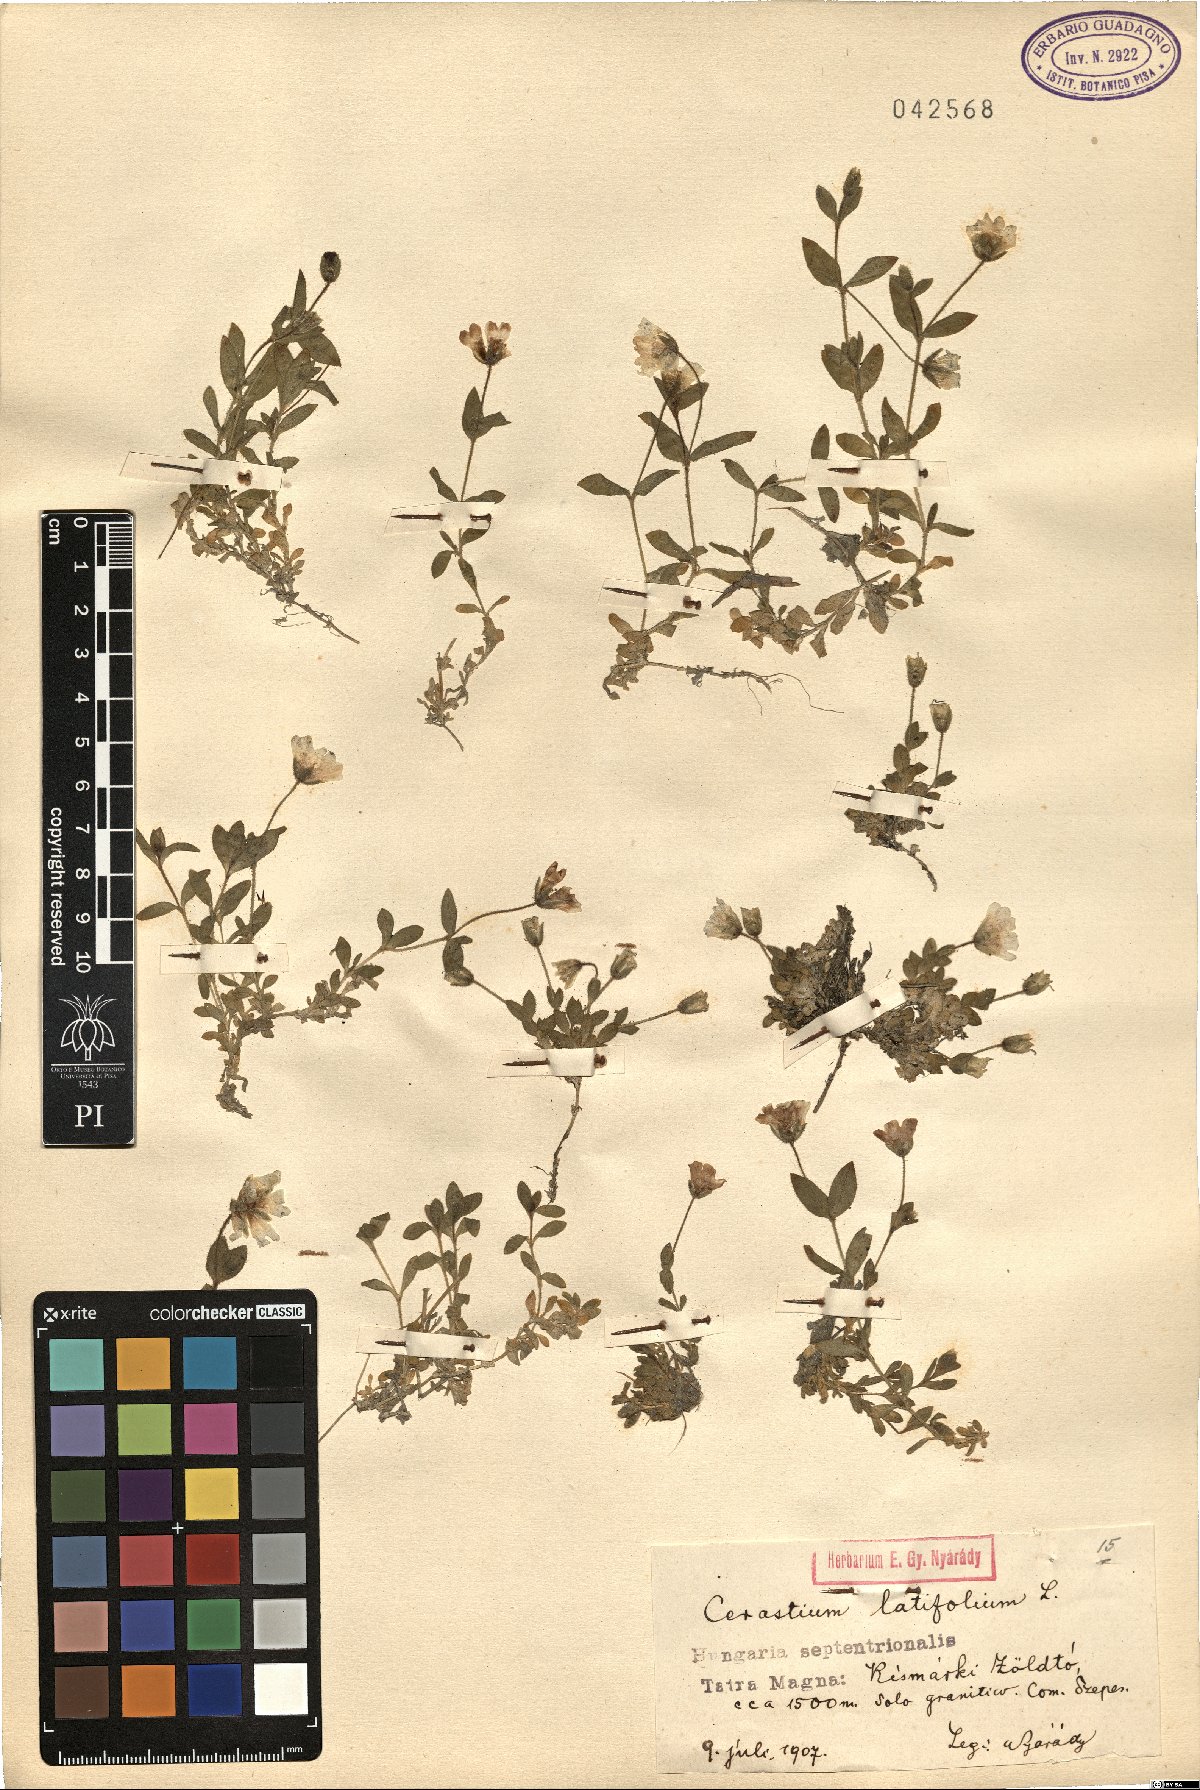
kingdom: Plantae
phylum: Tracheophyta
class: Magnoliopsida
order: Caryophyllales
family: Caryophyllaceae
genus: Cerastium
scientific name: Cerastium latifolium
